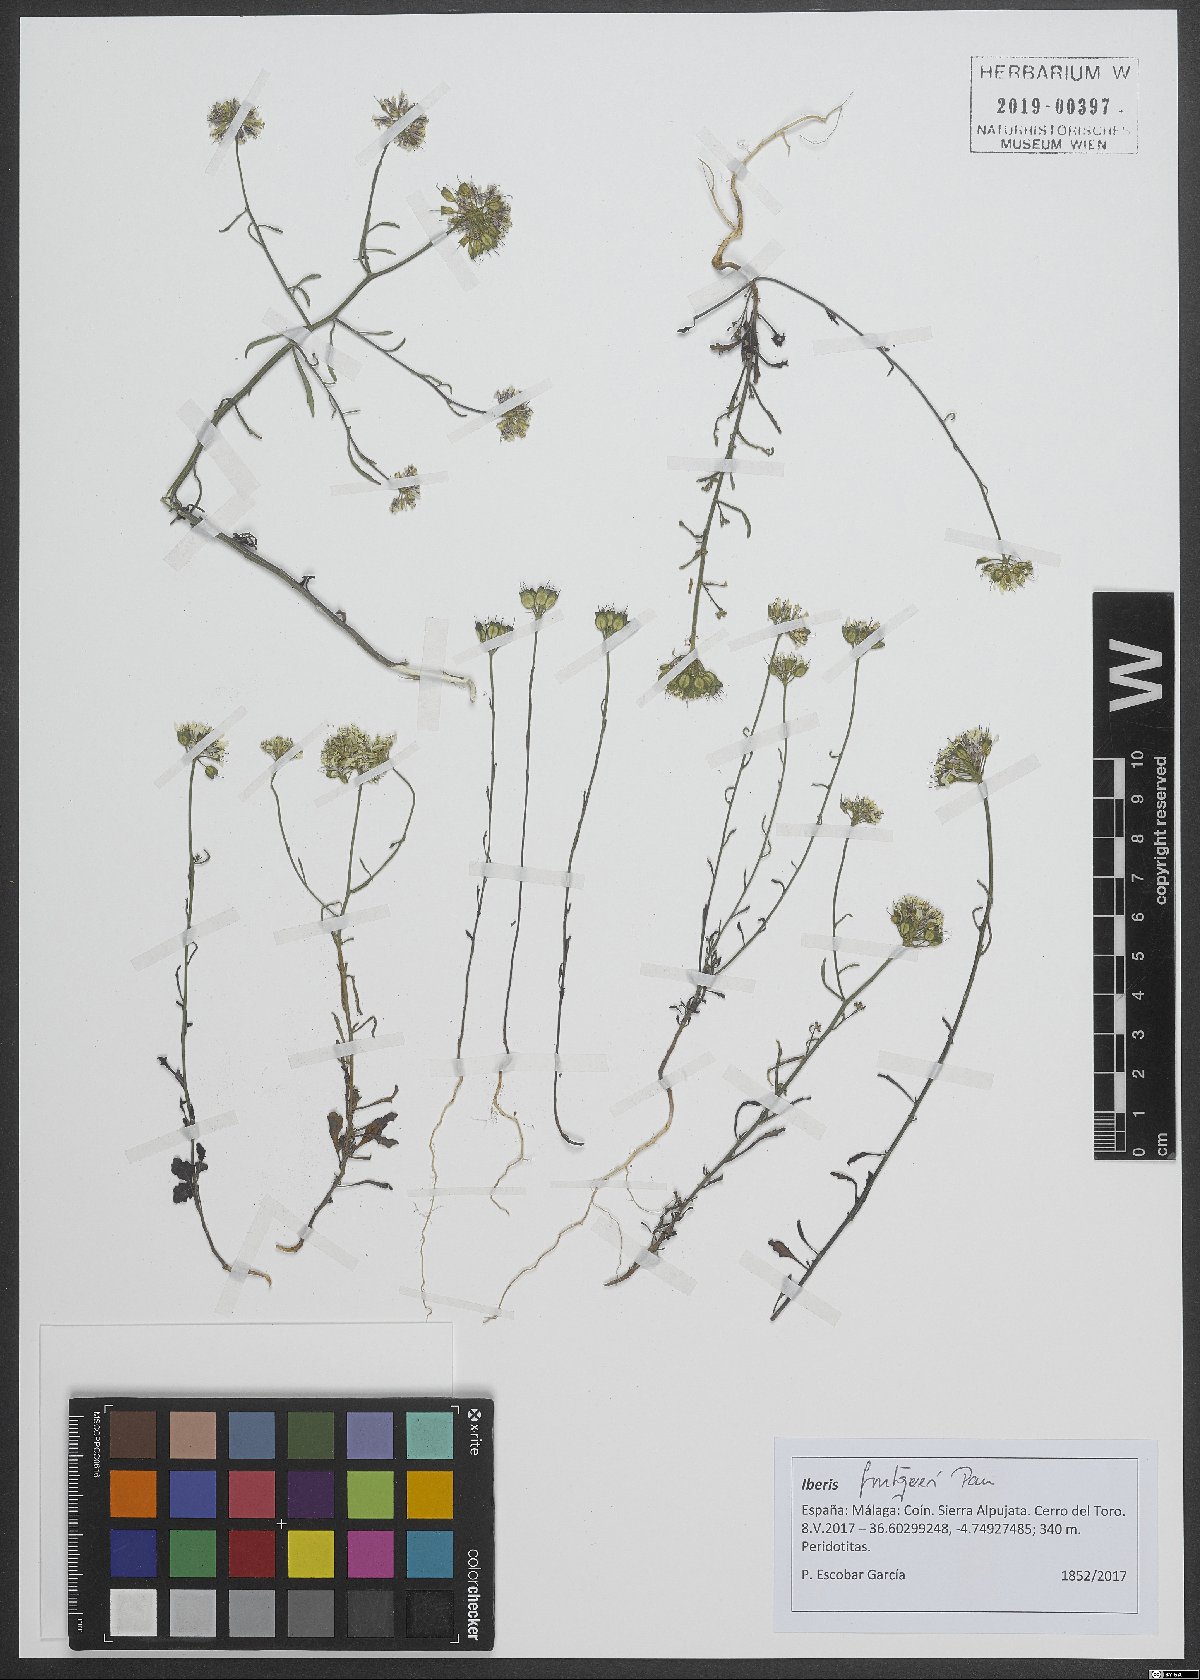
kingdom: Plantae
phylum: Tracheophyta
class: Magnoliopsida
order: Brassicales
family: Brassicaceae
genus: Iberis
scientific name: Iberis fontqueri
